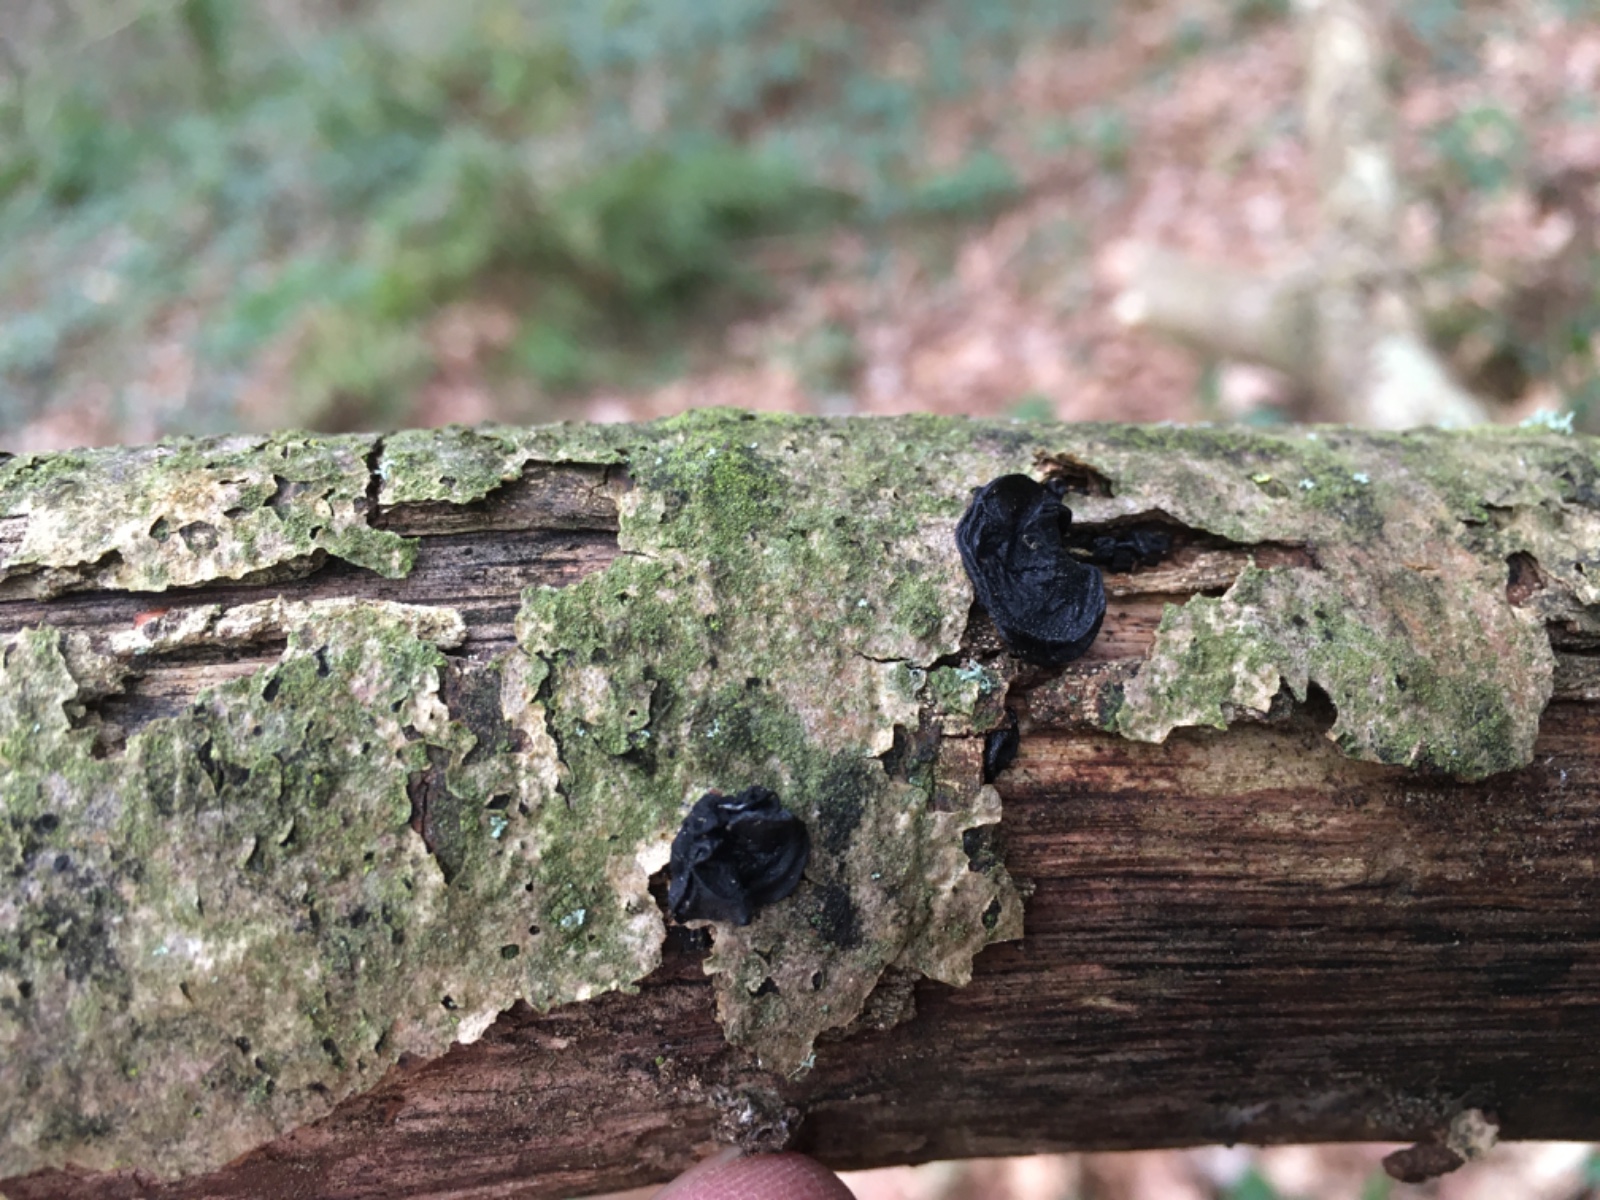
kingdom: Fungi
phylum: Basidiomycota
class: Agaricomycetes
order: Auriculariales
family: Auriculariaceae
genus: Exidia
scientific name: Exidia glandulosa
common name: ege-bævretop
